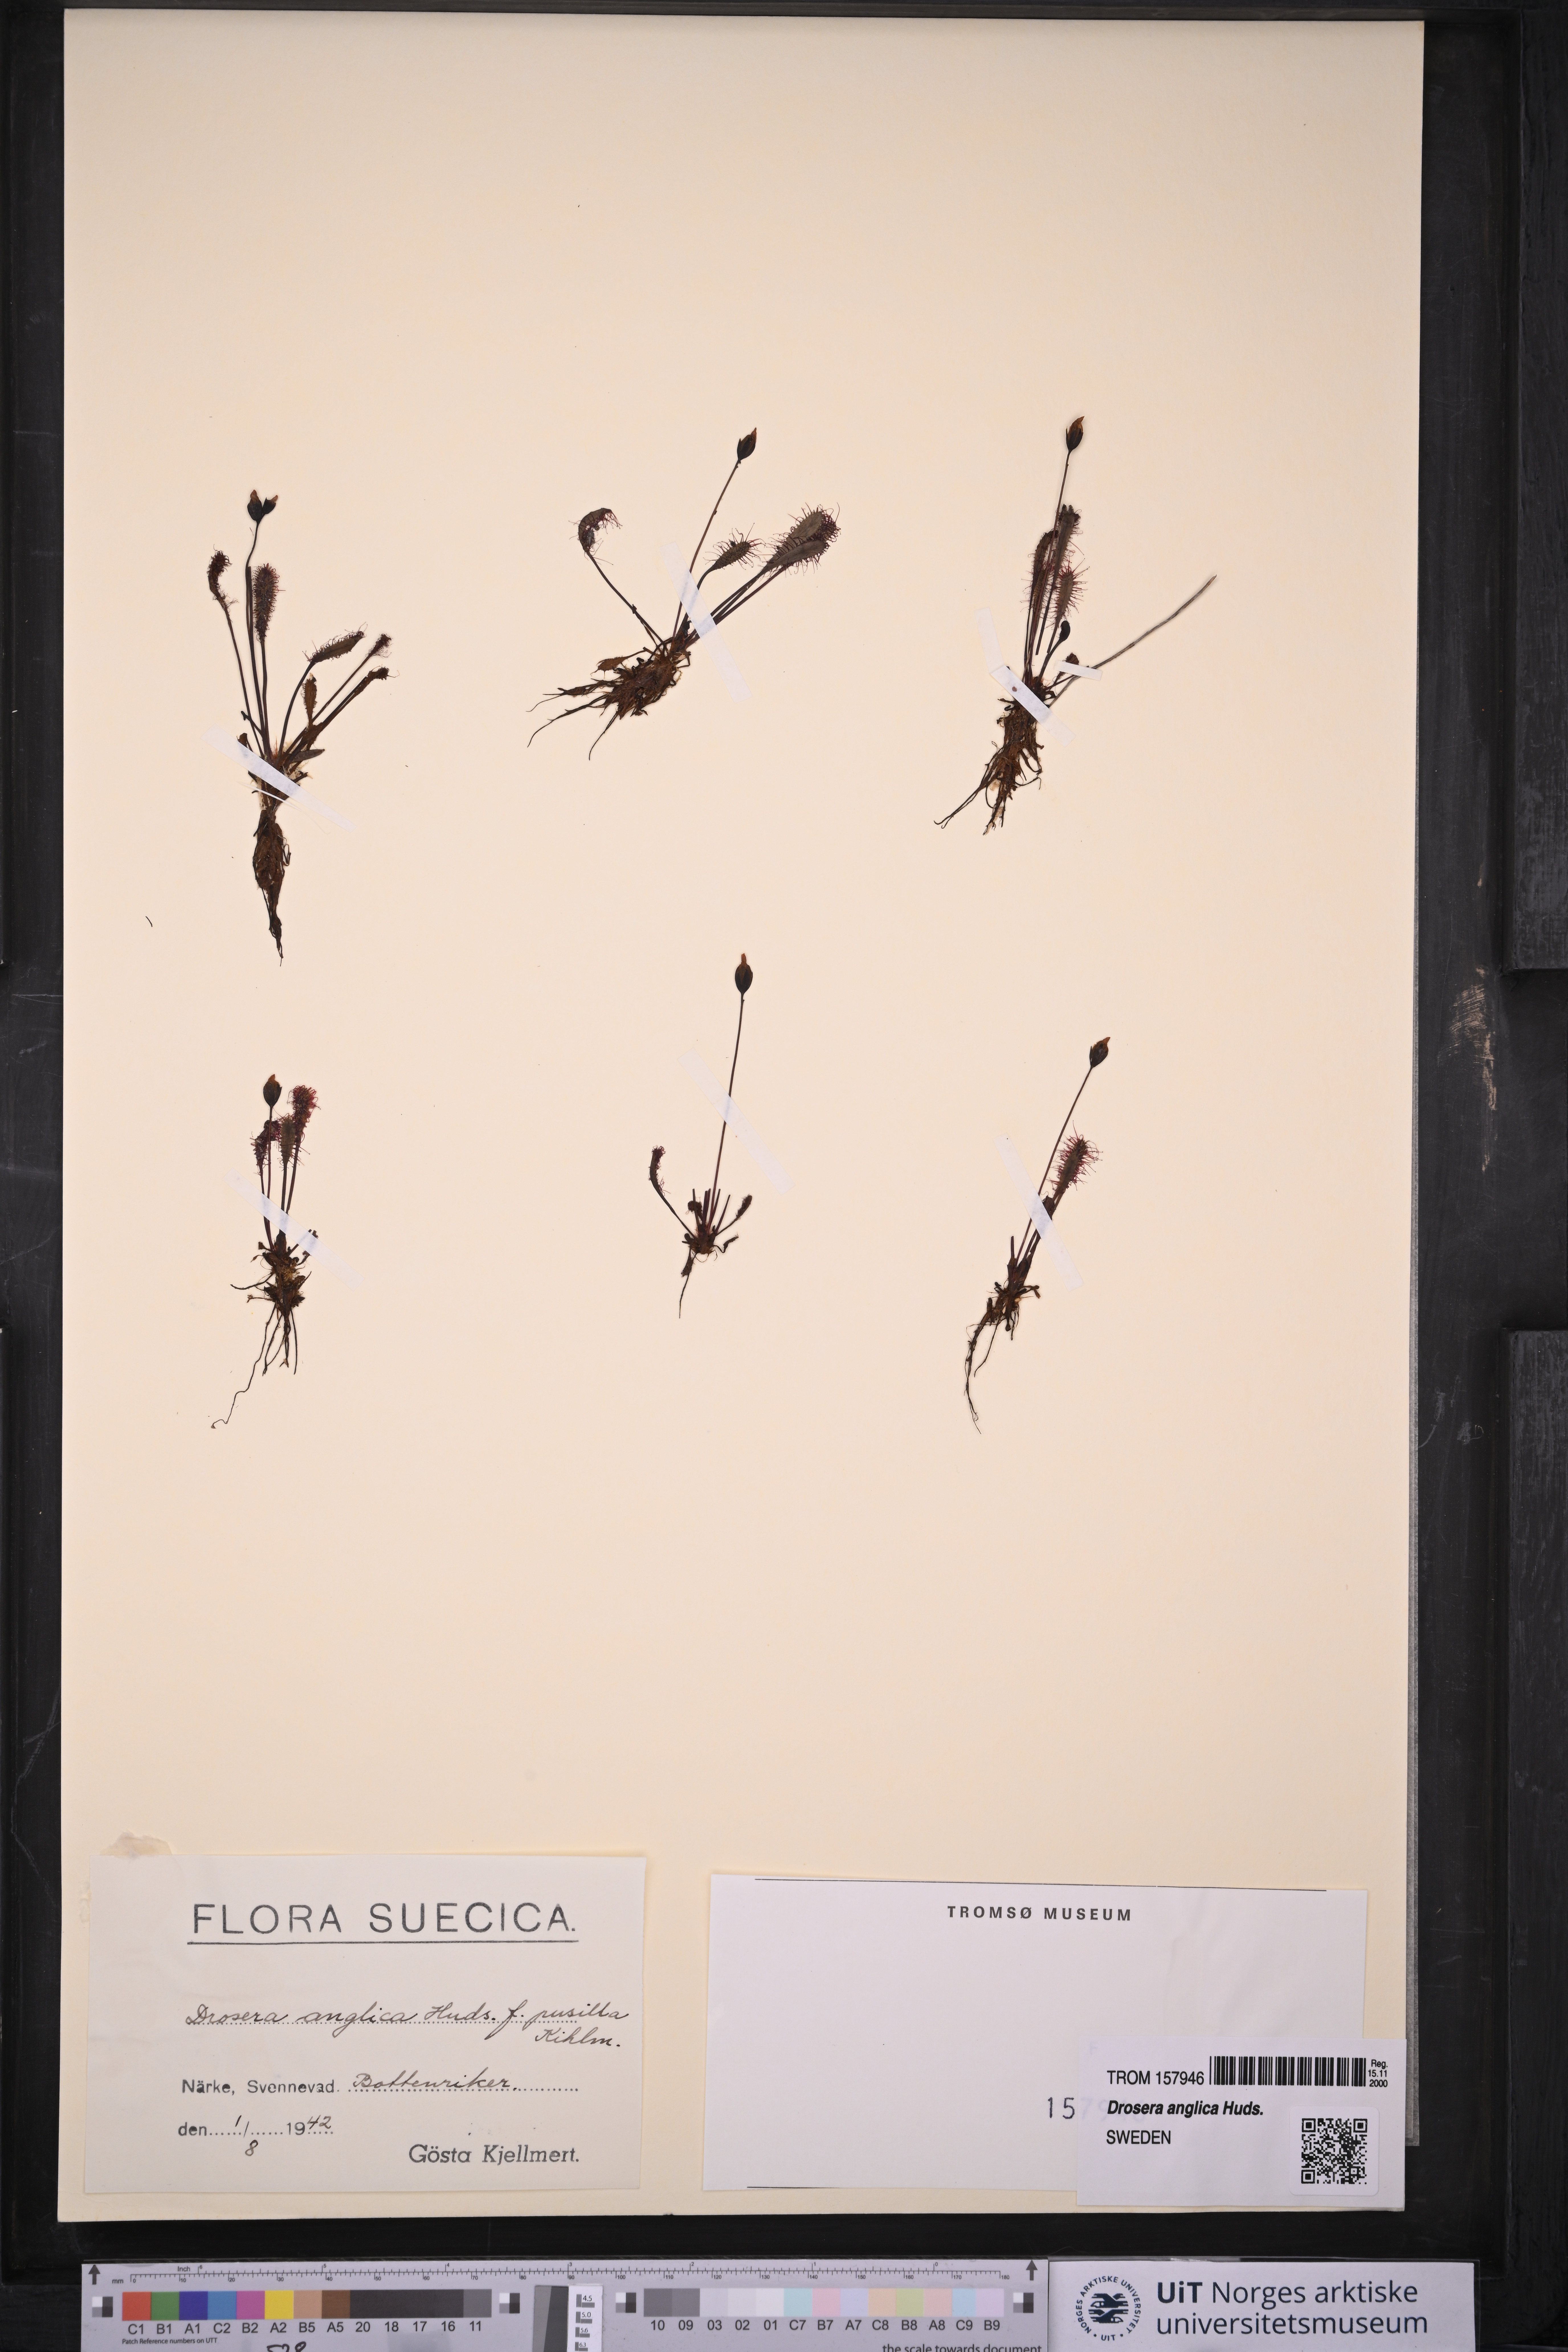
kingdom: Plantae
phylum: Tracheophyta
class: Magnoliopsida
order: Caryophyllales
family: Droseraceae
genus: Drosera
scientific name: Drosera anglica
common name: Great sundew
